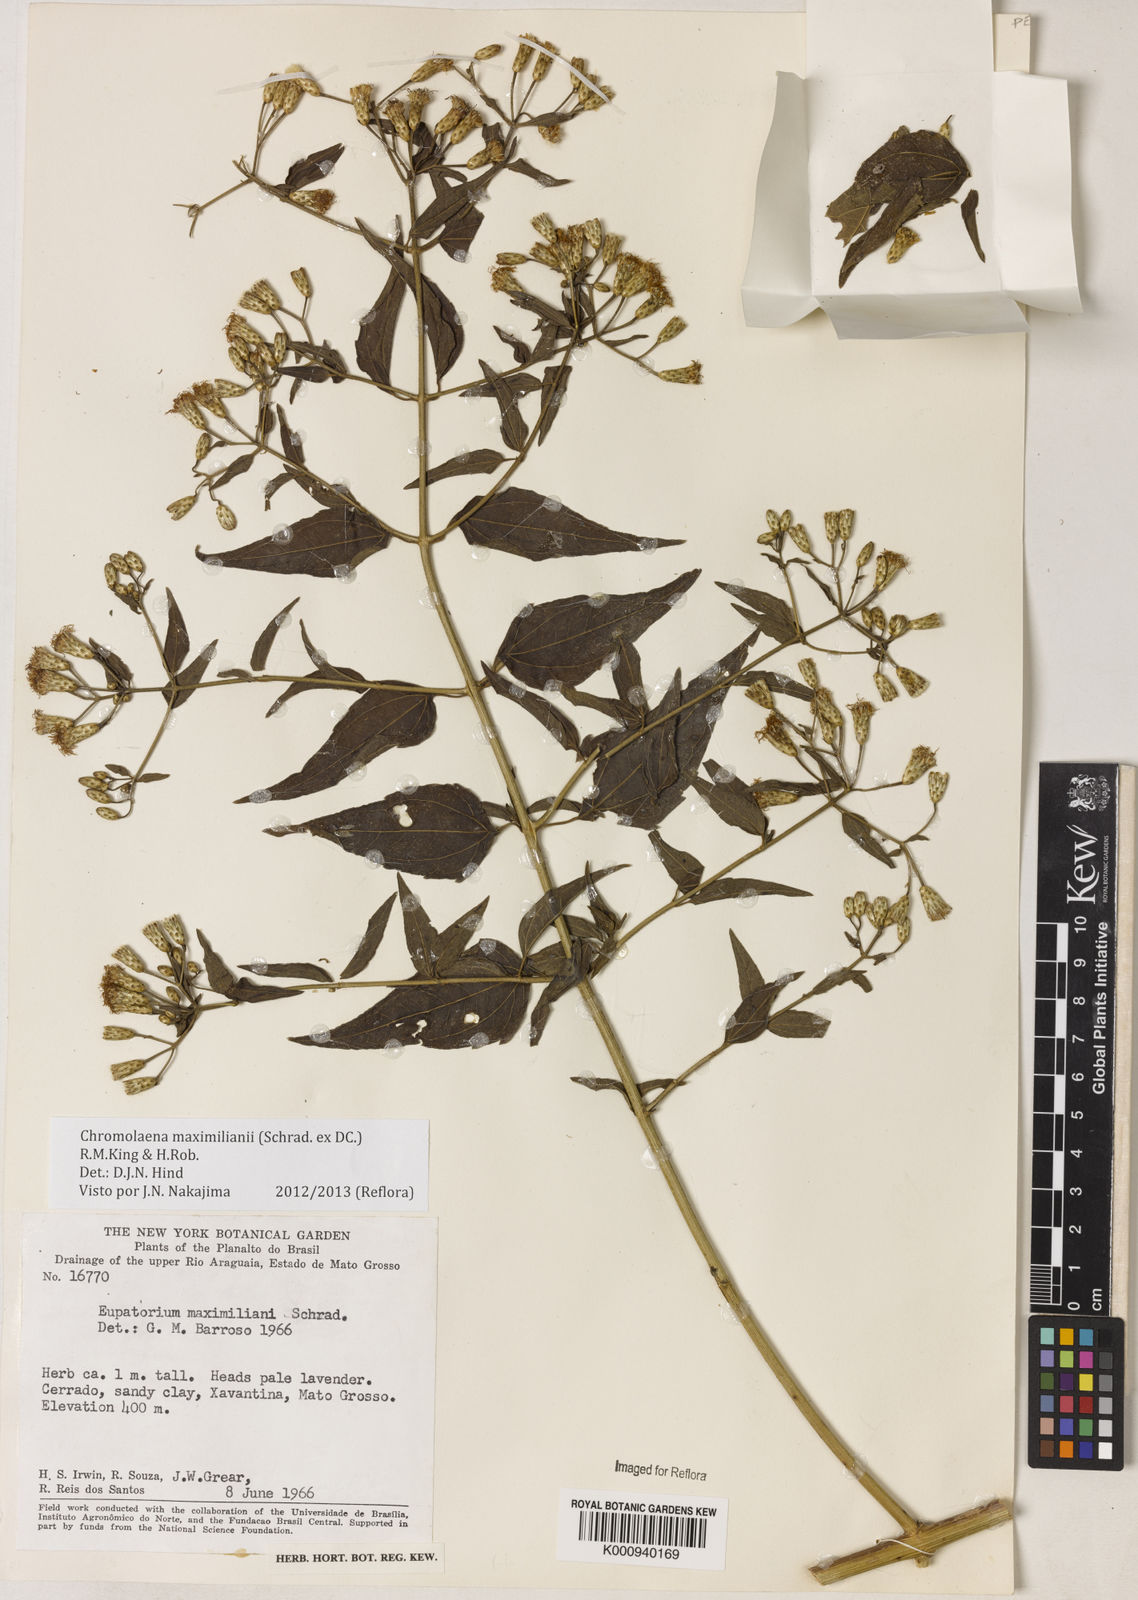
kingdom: Plantae
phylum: Tracheophyta
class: Magnoliopsida
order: Asterales
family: Asteraceae
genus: Chromolaena
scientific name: Chromolaena maximiliani
